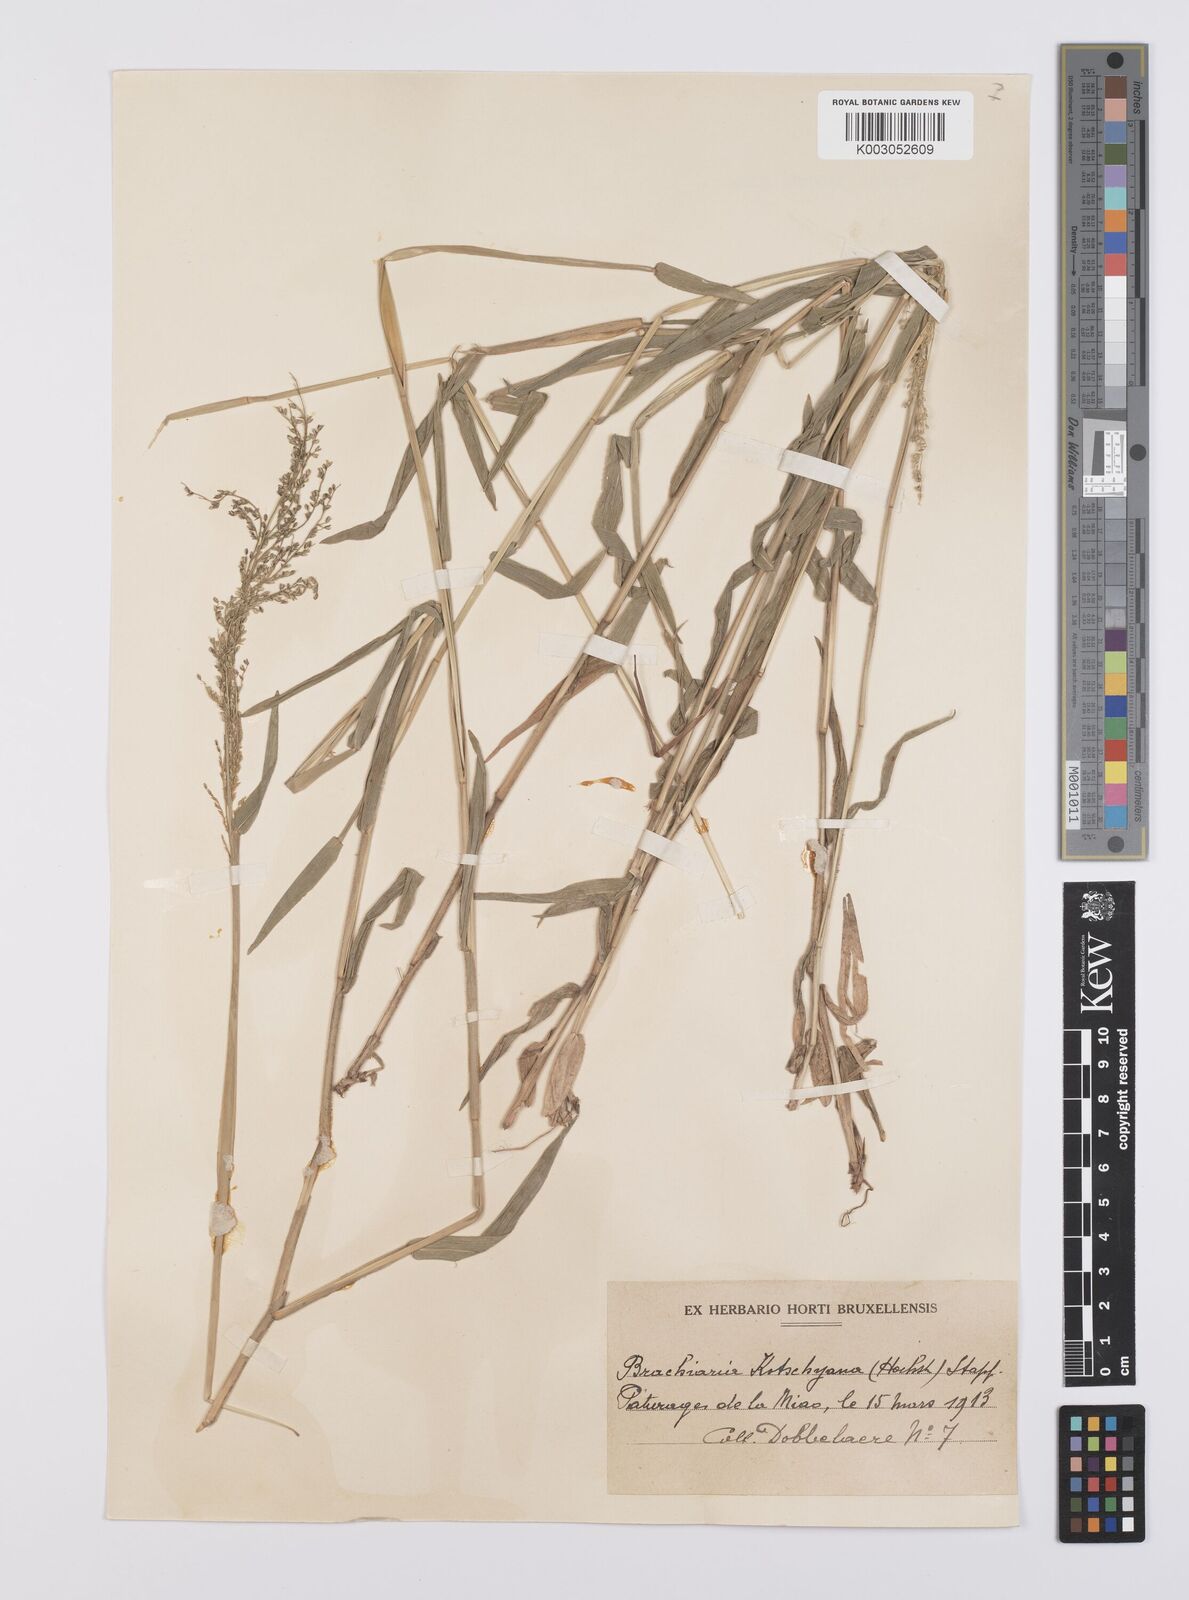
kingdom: Plantae
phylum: Tracheophyta
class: Liliopsida
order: Poales
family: Poaceae
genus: Urochloa
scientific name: Urochloa comata
